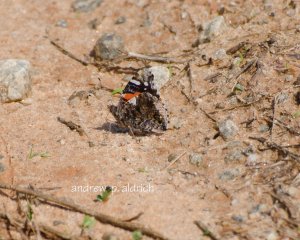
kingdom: Animalia
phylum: Arthropoda
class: Insecta
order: Lepidoptera
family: Nymphalidae
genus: Vanessa
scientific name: Vanessa atalanta
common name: Red Admiral
